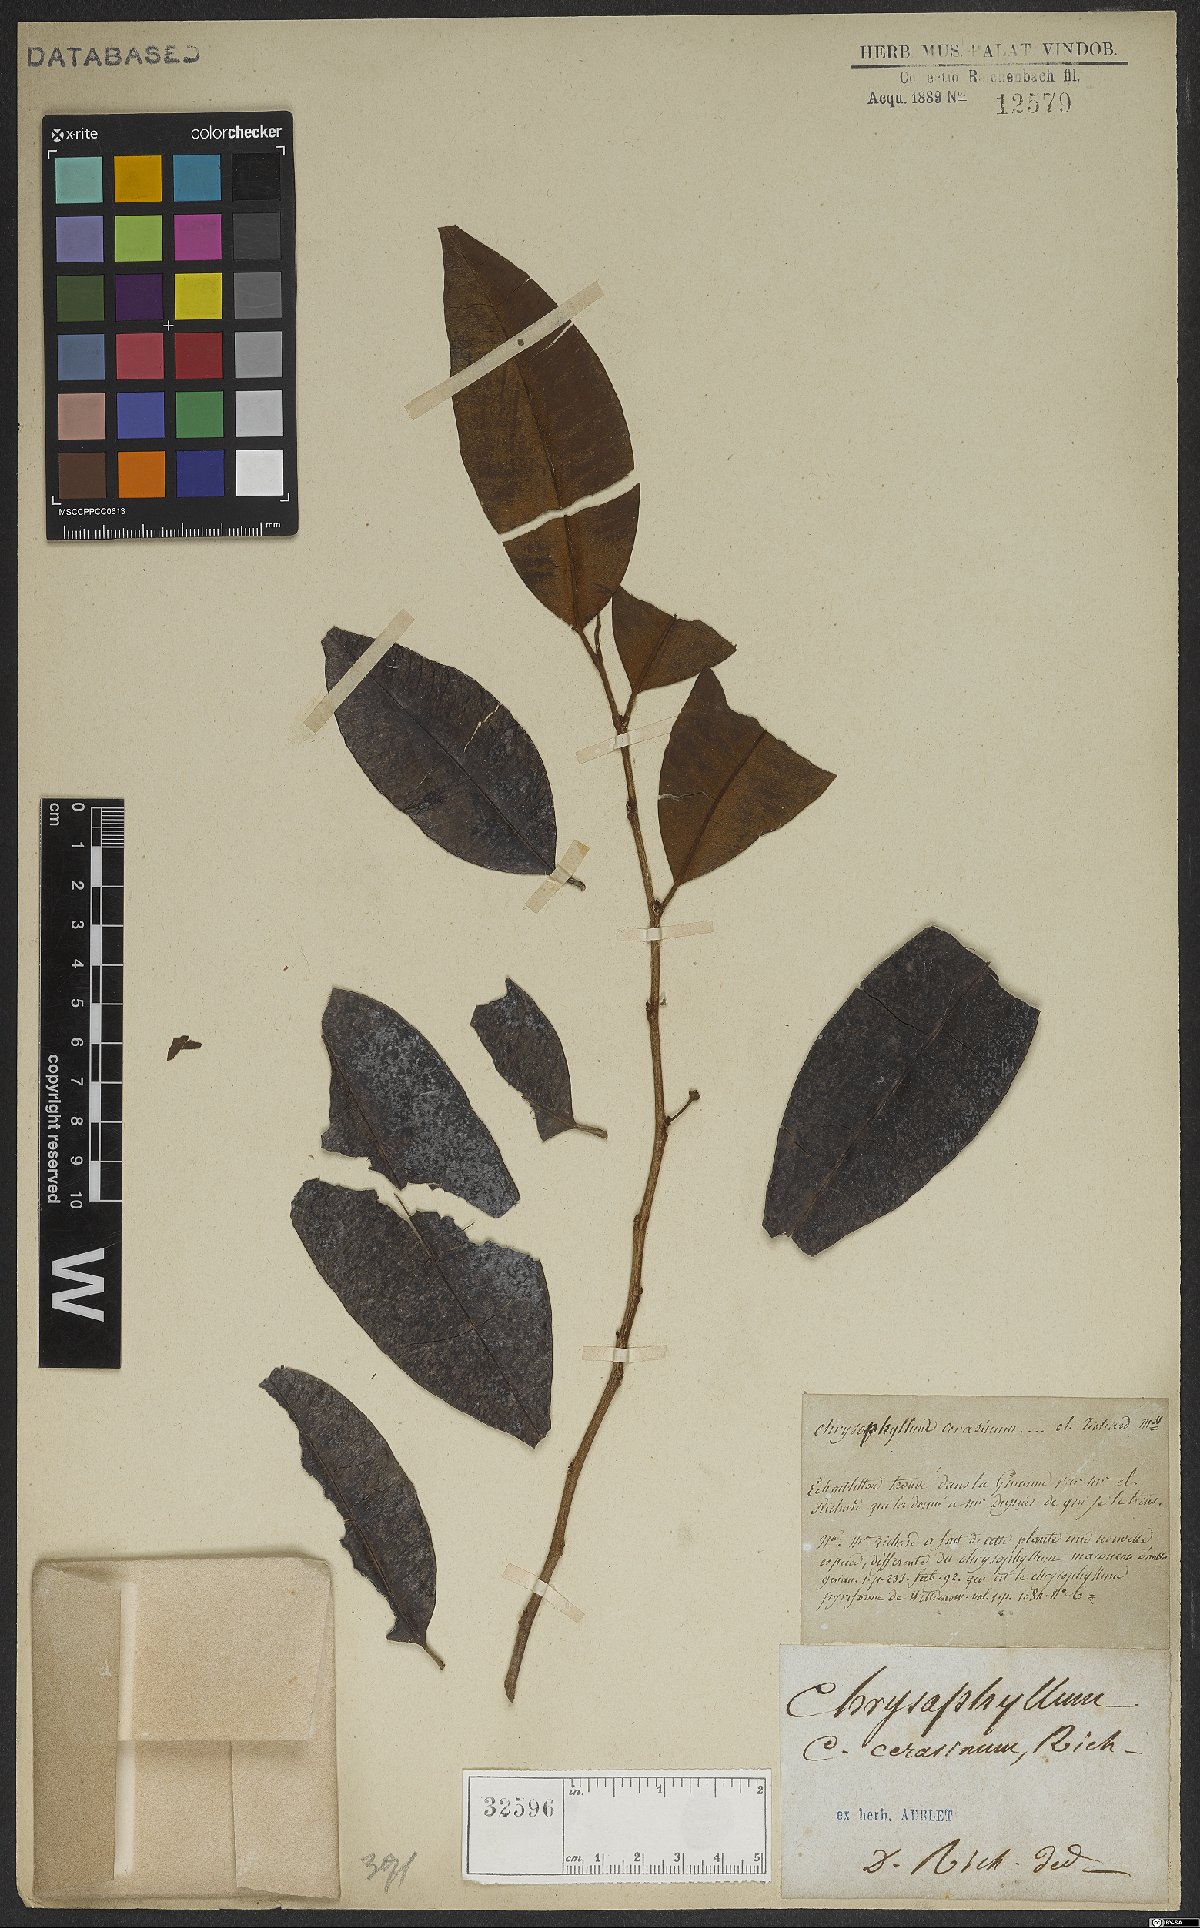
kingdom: Plantae
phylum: Tracheophyta
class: Magnoliopsida
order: Ericales
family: Sapotaceae
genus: Chrysophyllum
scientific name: Chrysophyllum cerasinum
